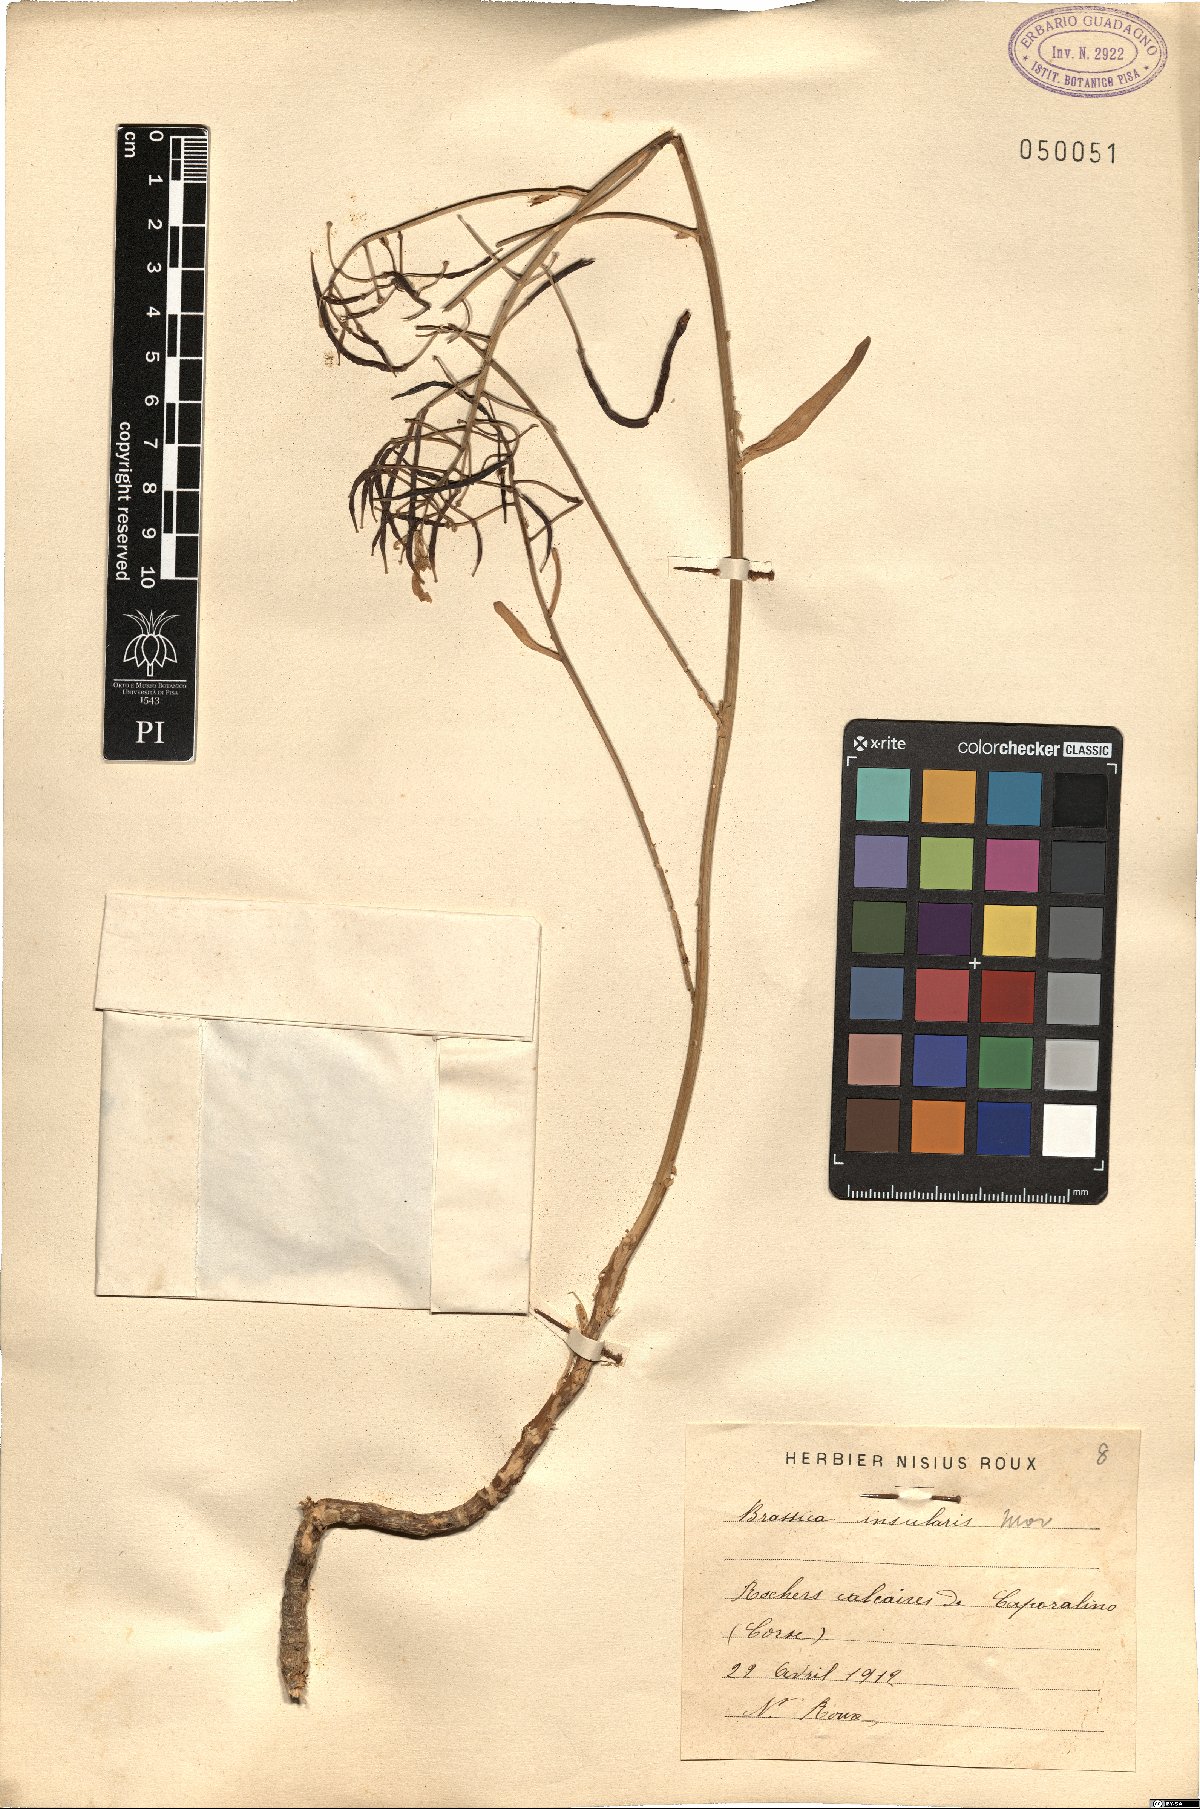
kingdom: Plantae
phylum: Tracheophyta
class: Magnoliopsida
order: Brassicales
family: Brassicaceae
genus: Brassica
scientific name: Brassica insularis
